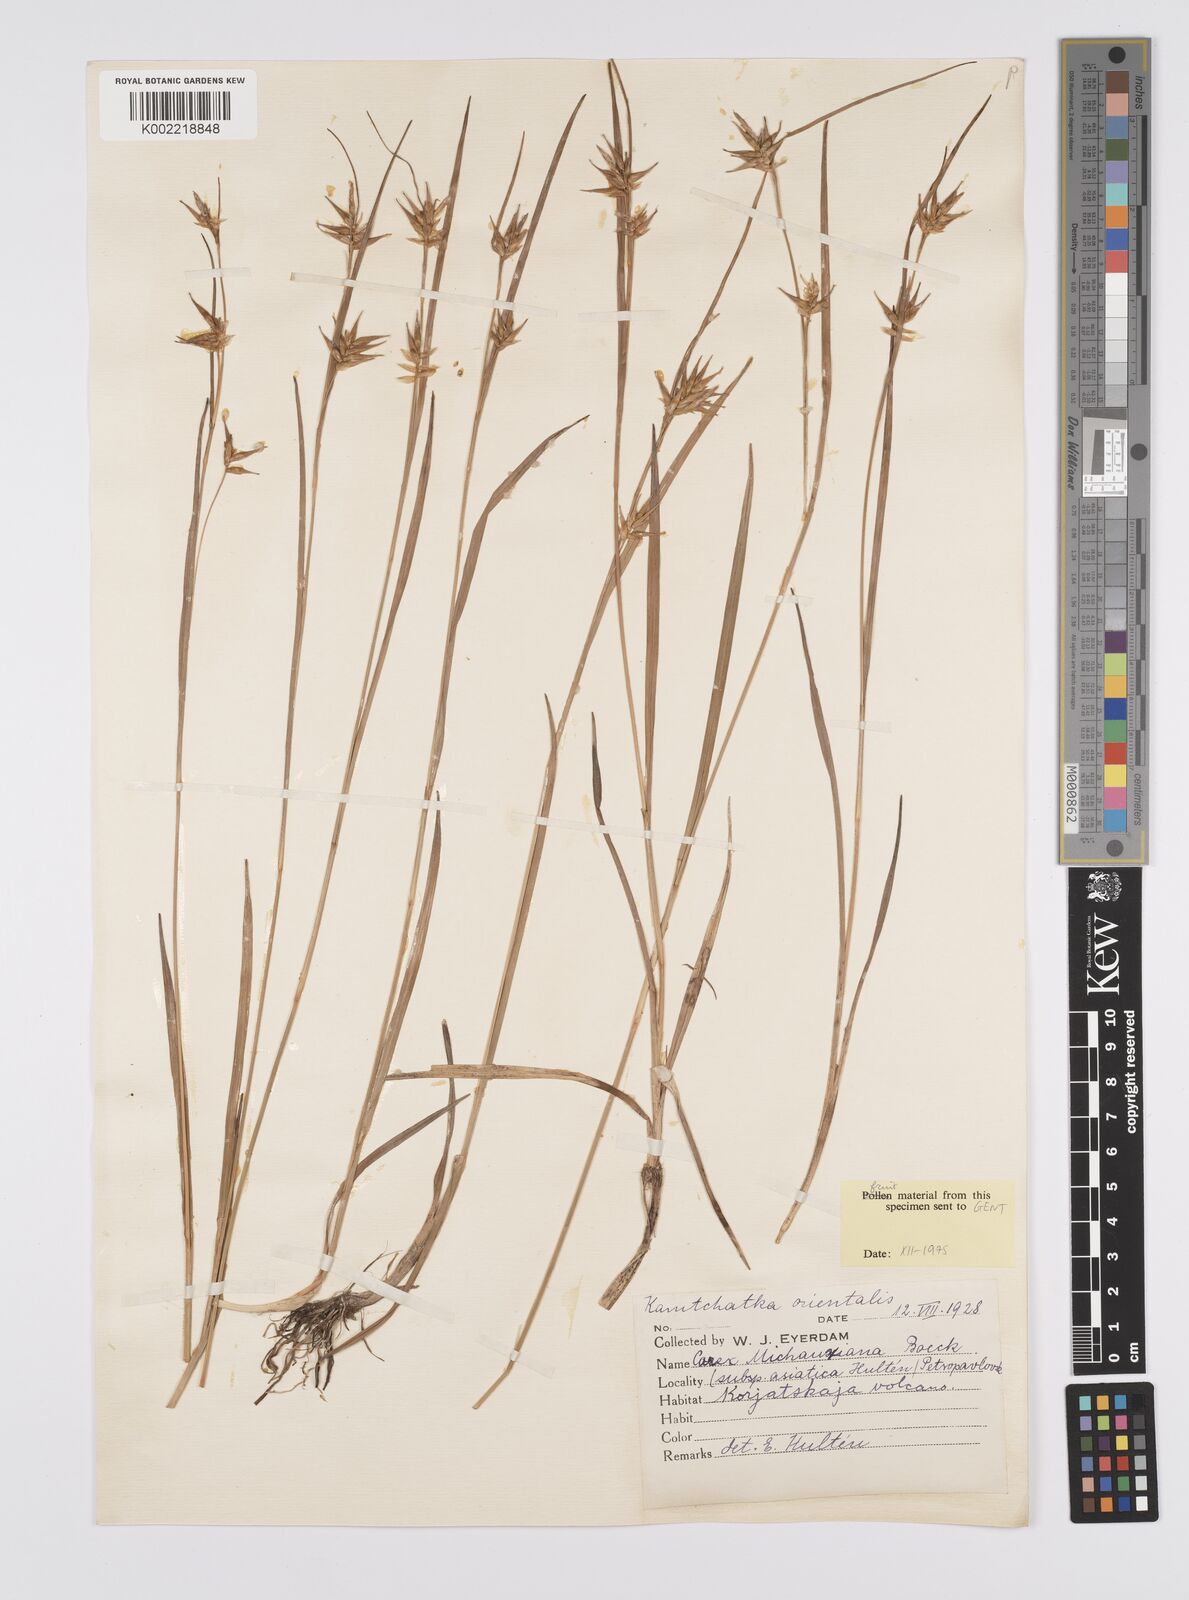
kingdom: Plantae
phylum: Tracheophyta
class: Liliopsida
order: Poales
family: Cyperaceae
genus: Carex
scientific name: Carex michauxiana
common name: Michaux's sedge
